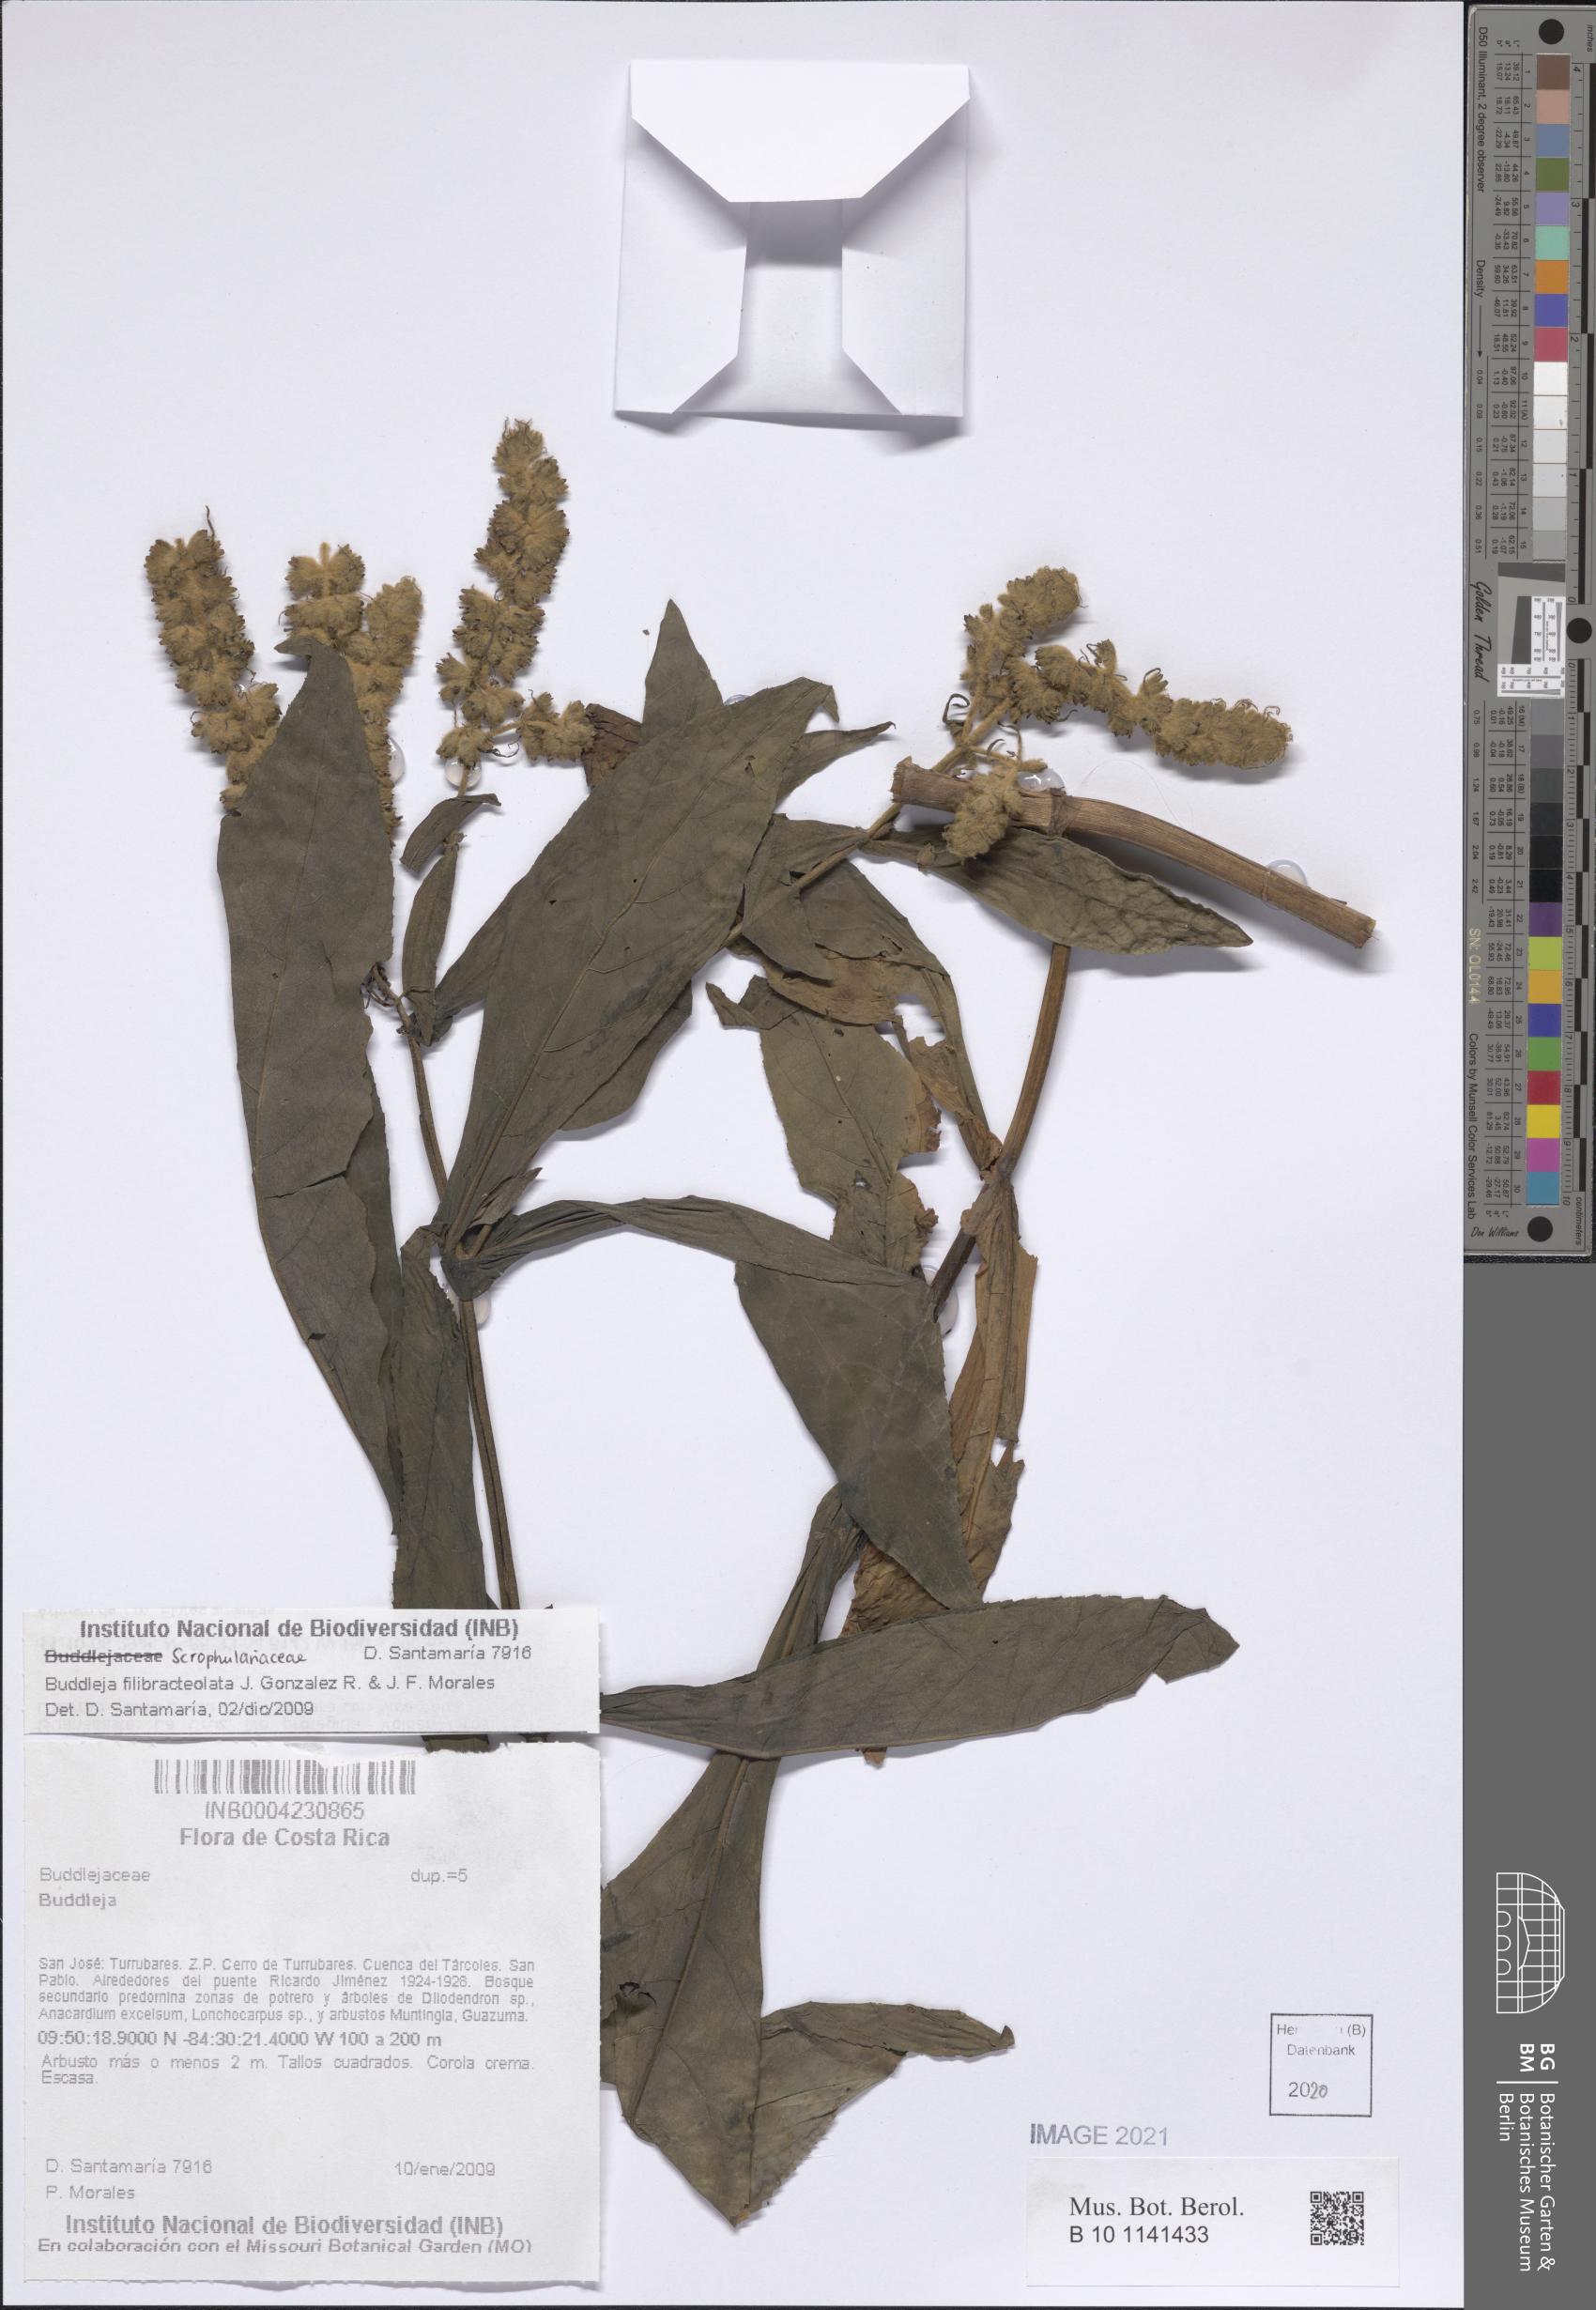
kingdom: Plantae
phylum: Tracheophyta
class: Magnoliopsida
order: Lamiales
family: Scrophulariaceae
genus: Buddleja
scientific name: Buddleja filibracteolata
